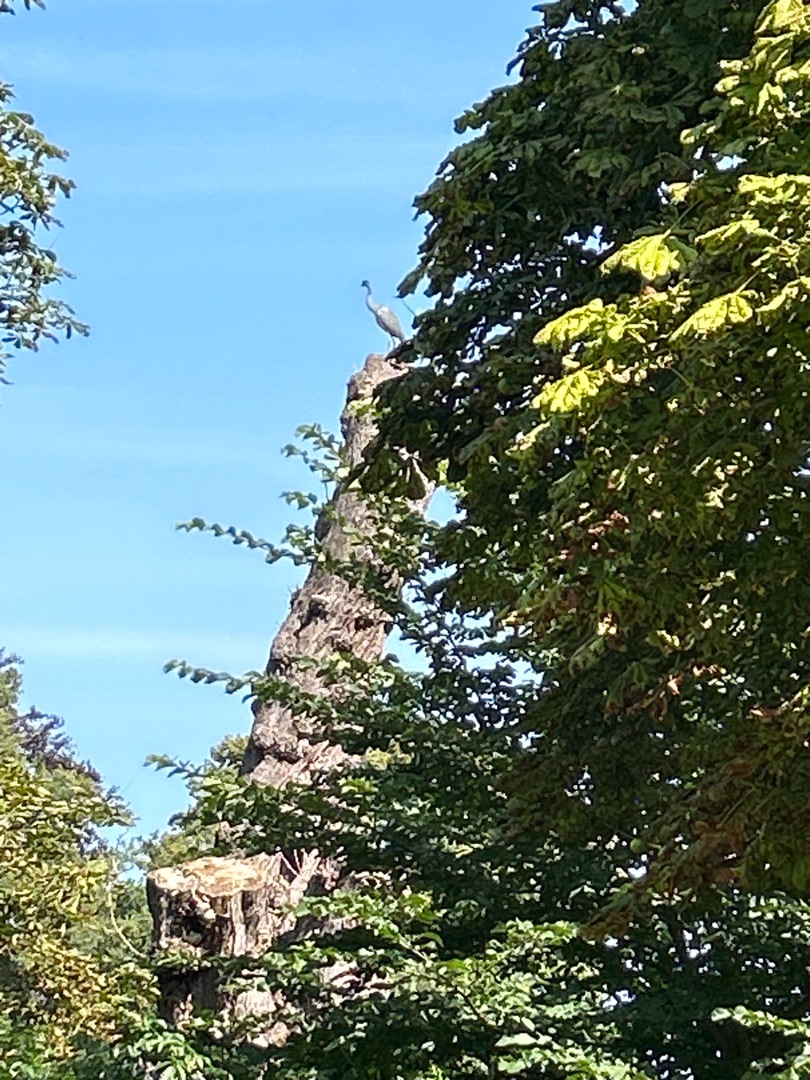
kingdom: Animalia
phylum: Chordata
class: Aves
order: Pelecaniformes
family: Ardeidae
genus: Ardea
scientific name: Ardea cinerea
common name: Fiskehejre
